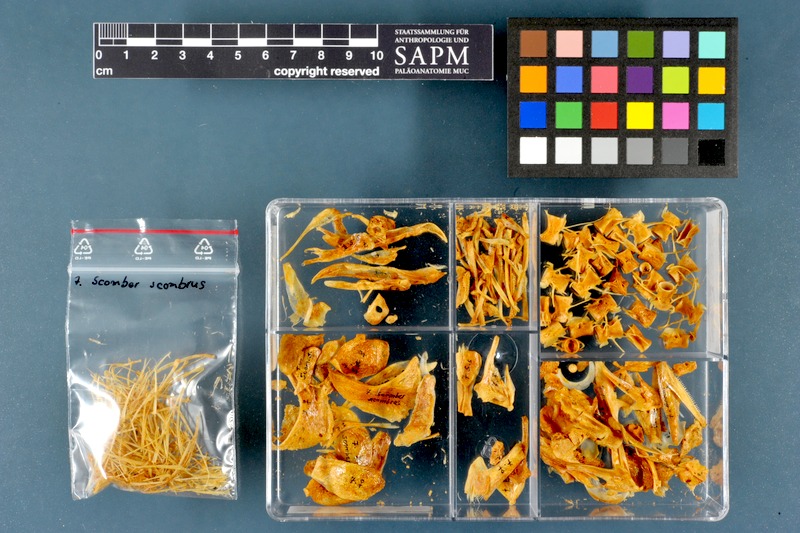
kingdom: Animalia
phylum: Chordata
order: Perciformes
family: Scombridae
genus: Scomber
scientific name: Scomber scombrus
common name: Mackerel
